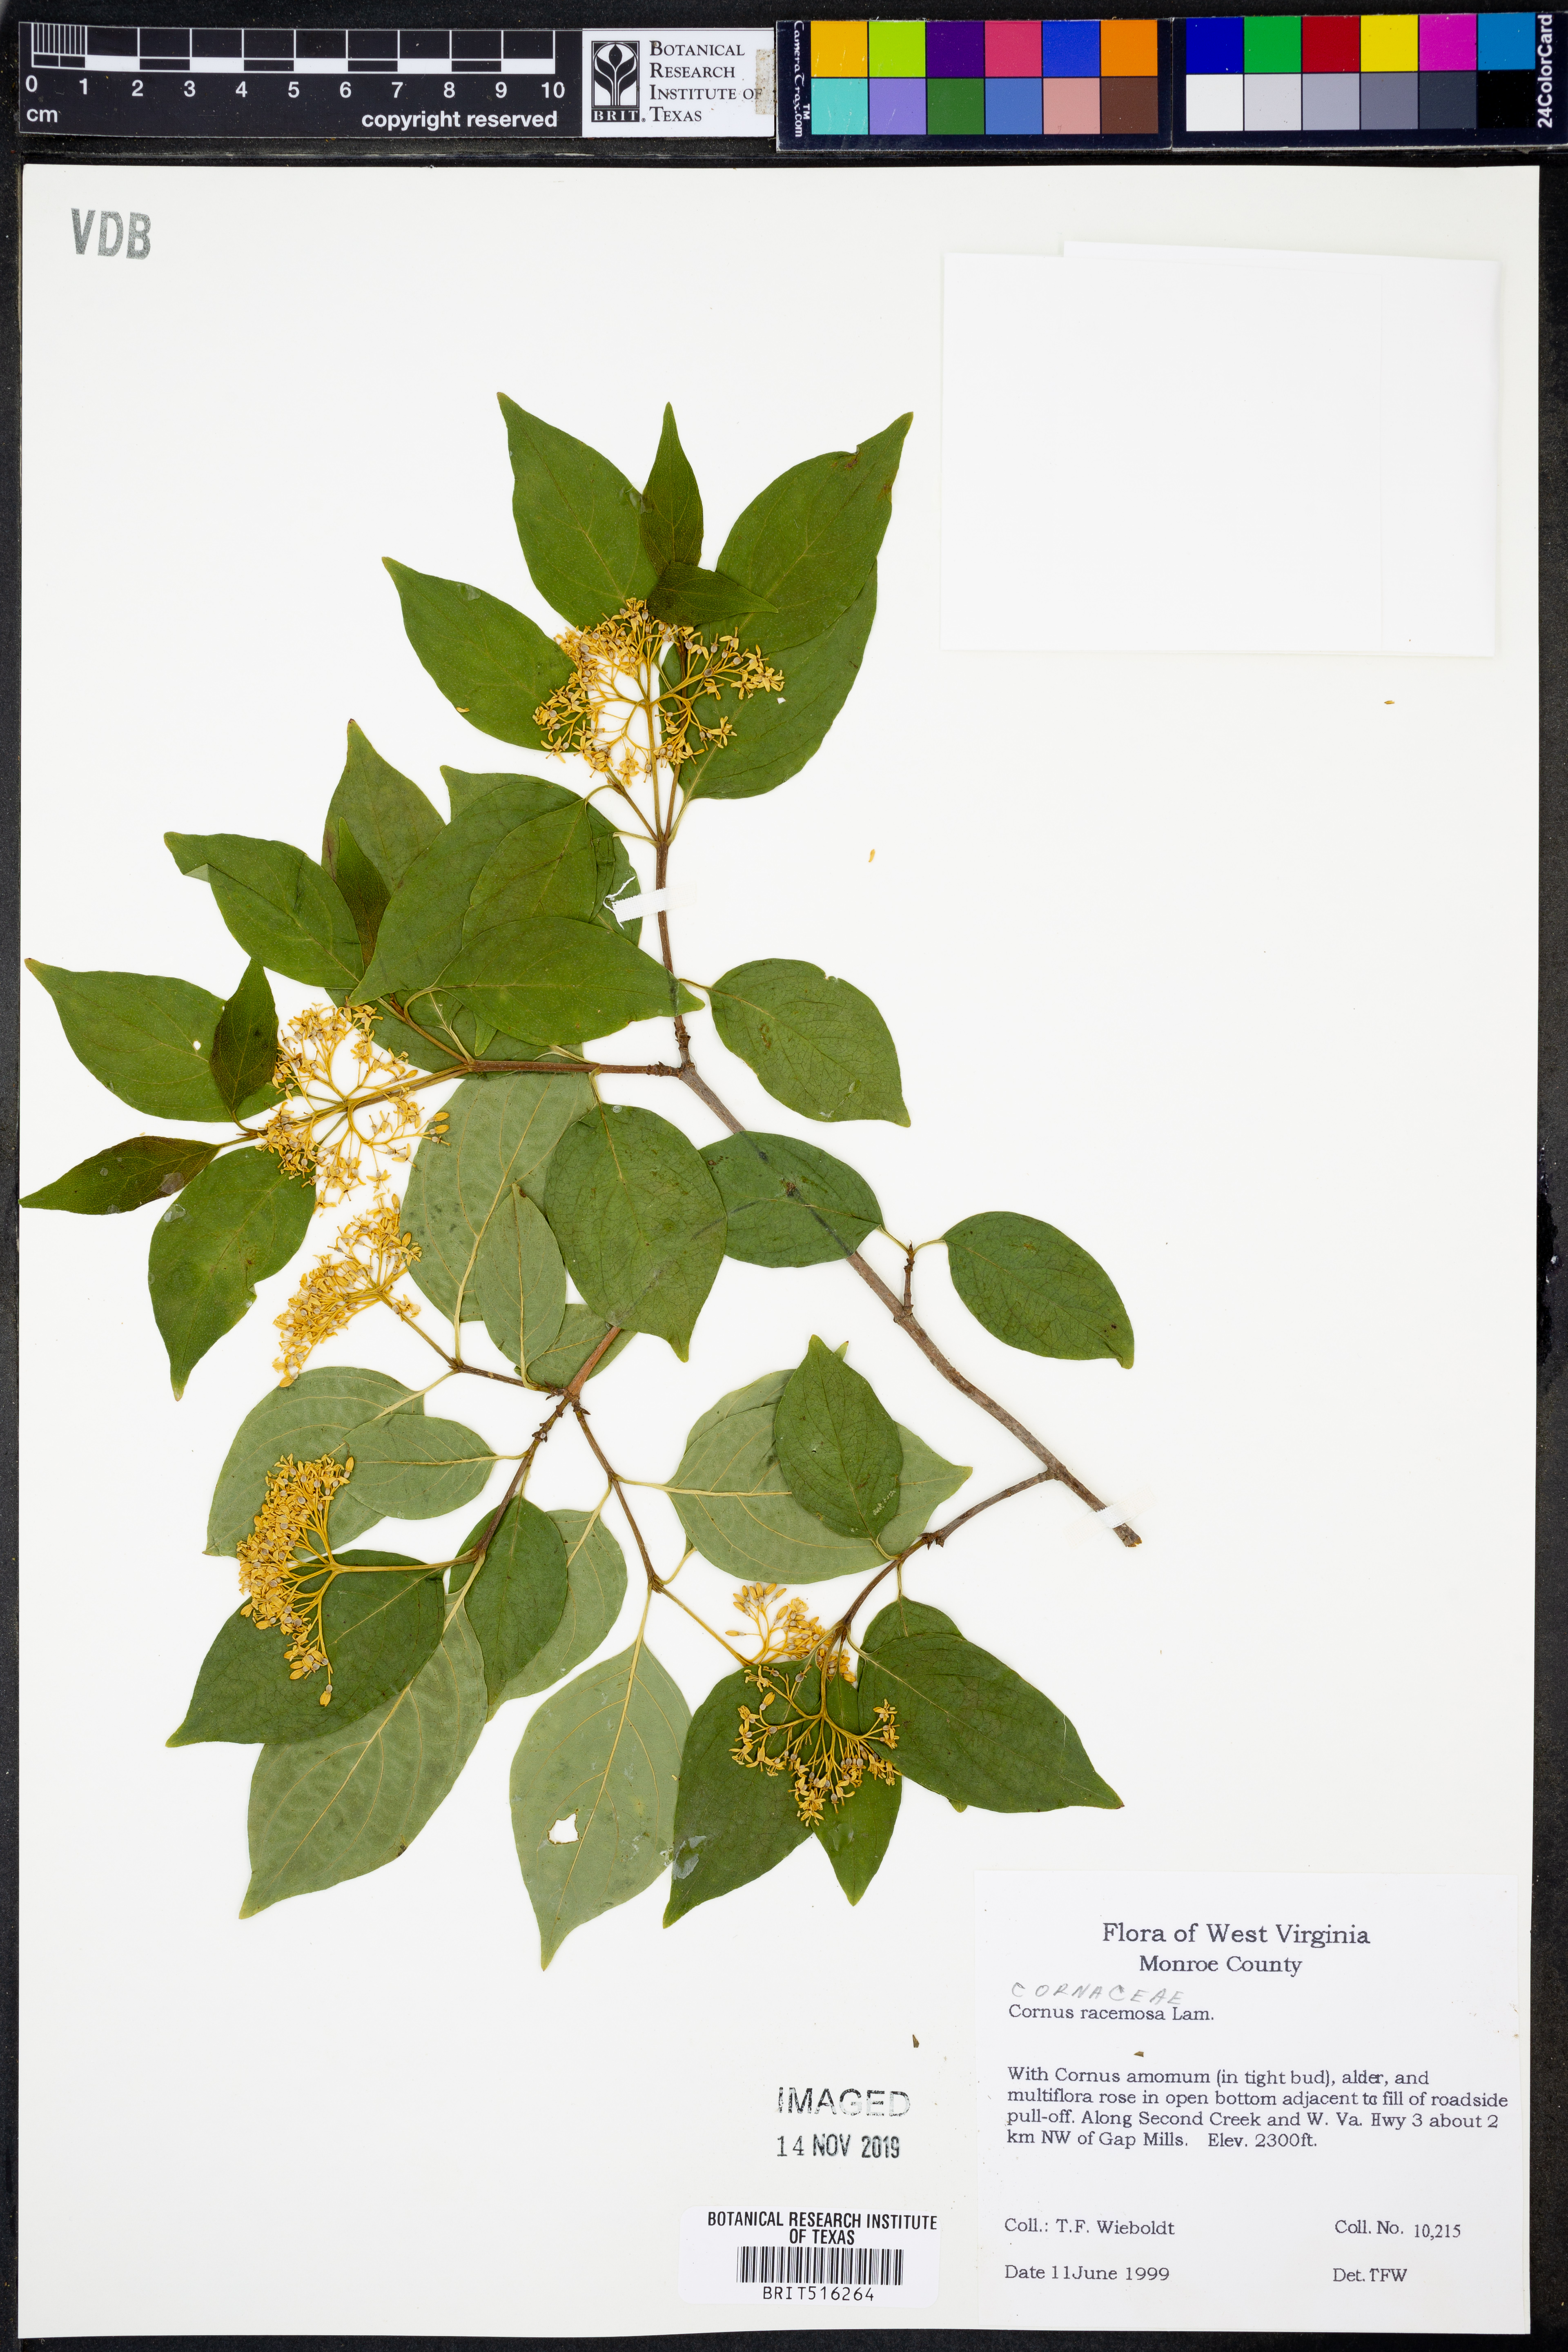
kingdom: Plantae
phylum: Tracheophyta
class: Magnoliopsida
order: Cornales
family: Cornaceae
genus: Cornus
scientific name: Cornus racemosa
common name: Panicled dogwood
